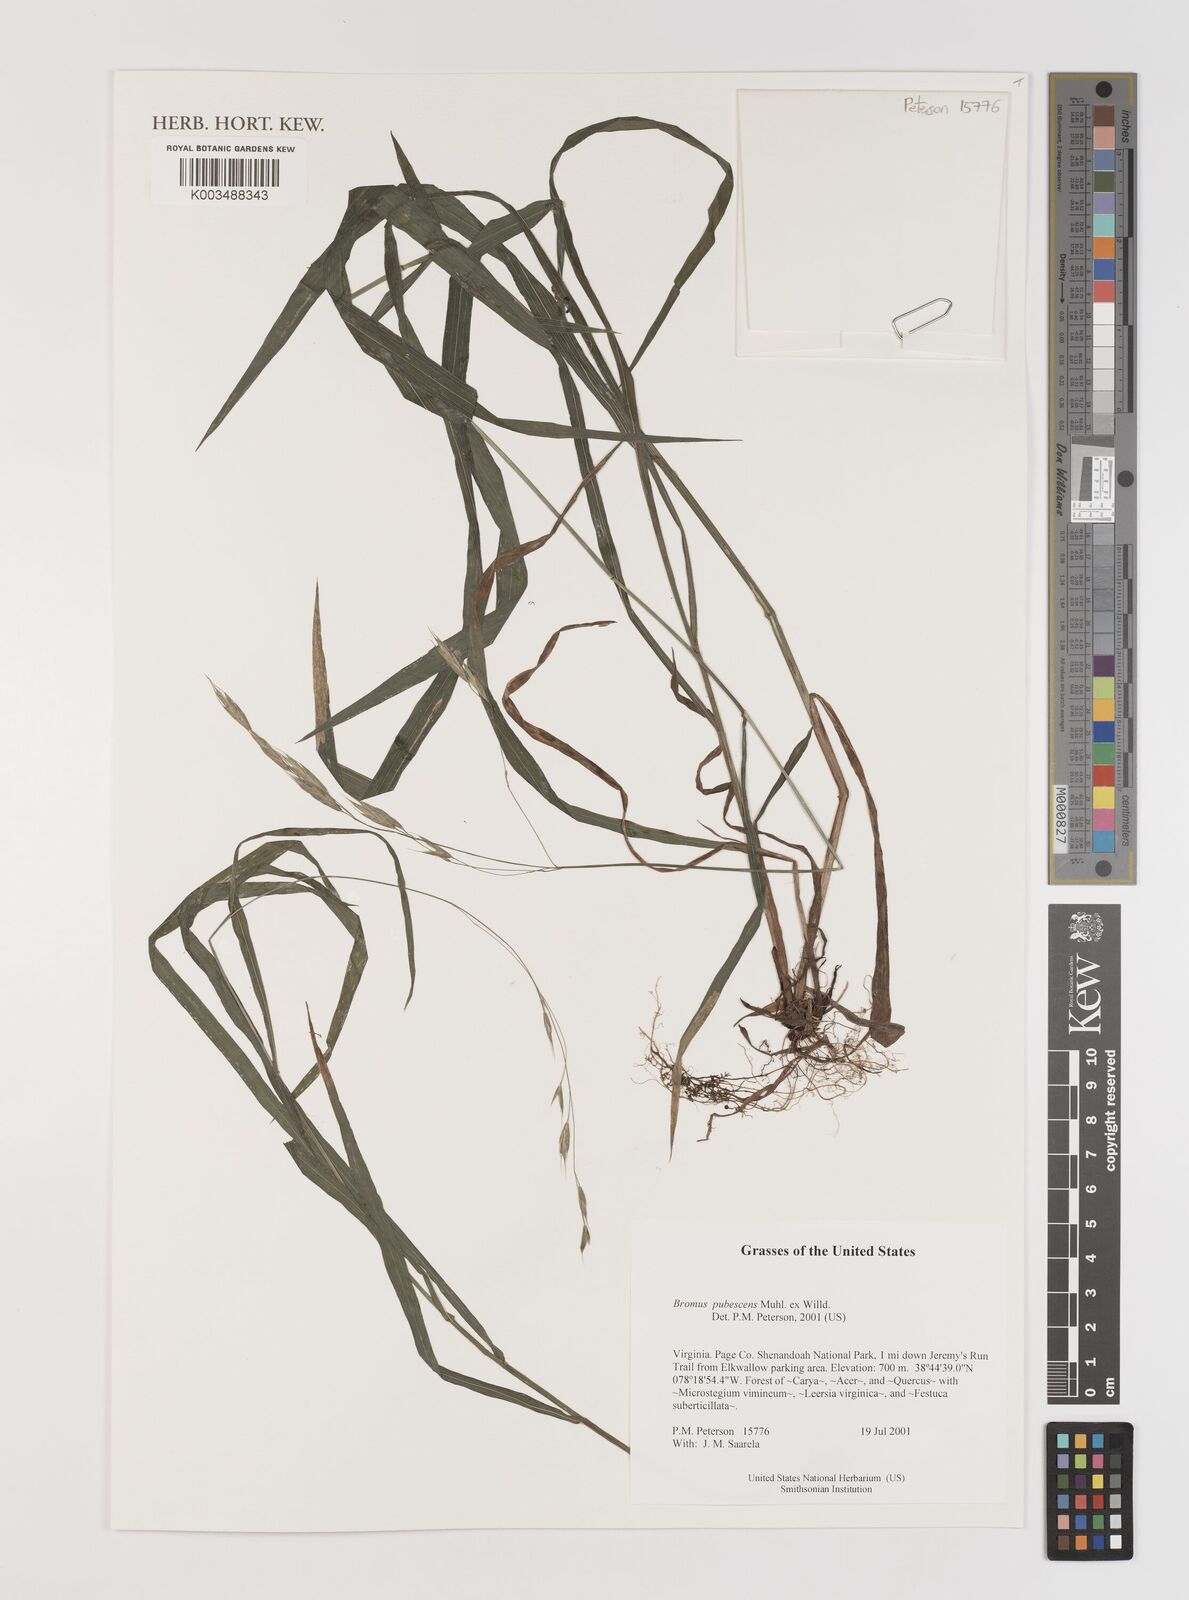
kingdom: Plantae
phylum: Tracheophyta
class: Liliopsida
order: Poales
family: Poaceae
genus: Bromus
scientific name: Bromus pubescens
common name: Hairy wood brome grass
